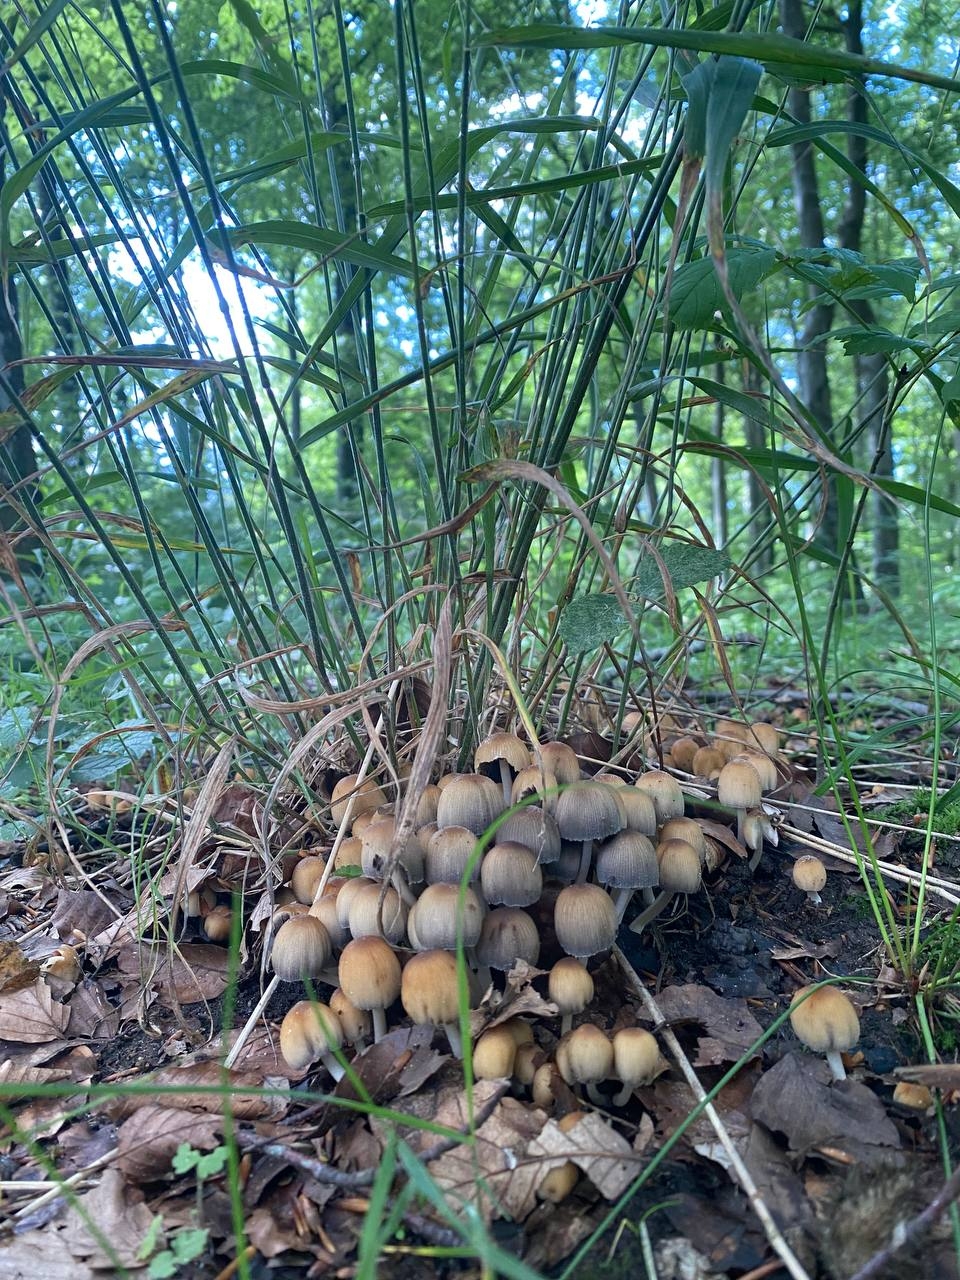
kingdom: Fungi
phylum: Basidiomycota
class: Agaricomycetes
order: Agaricales
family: Psathyrellaceae
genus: Coprinellus
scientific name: Coprinellus micaceus
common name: glimmer-blækhat
